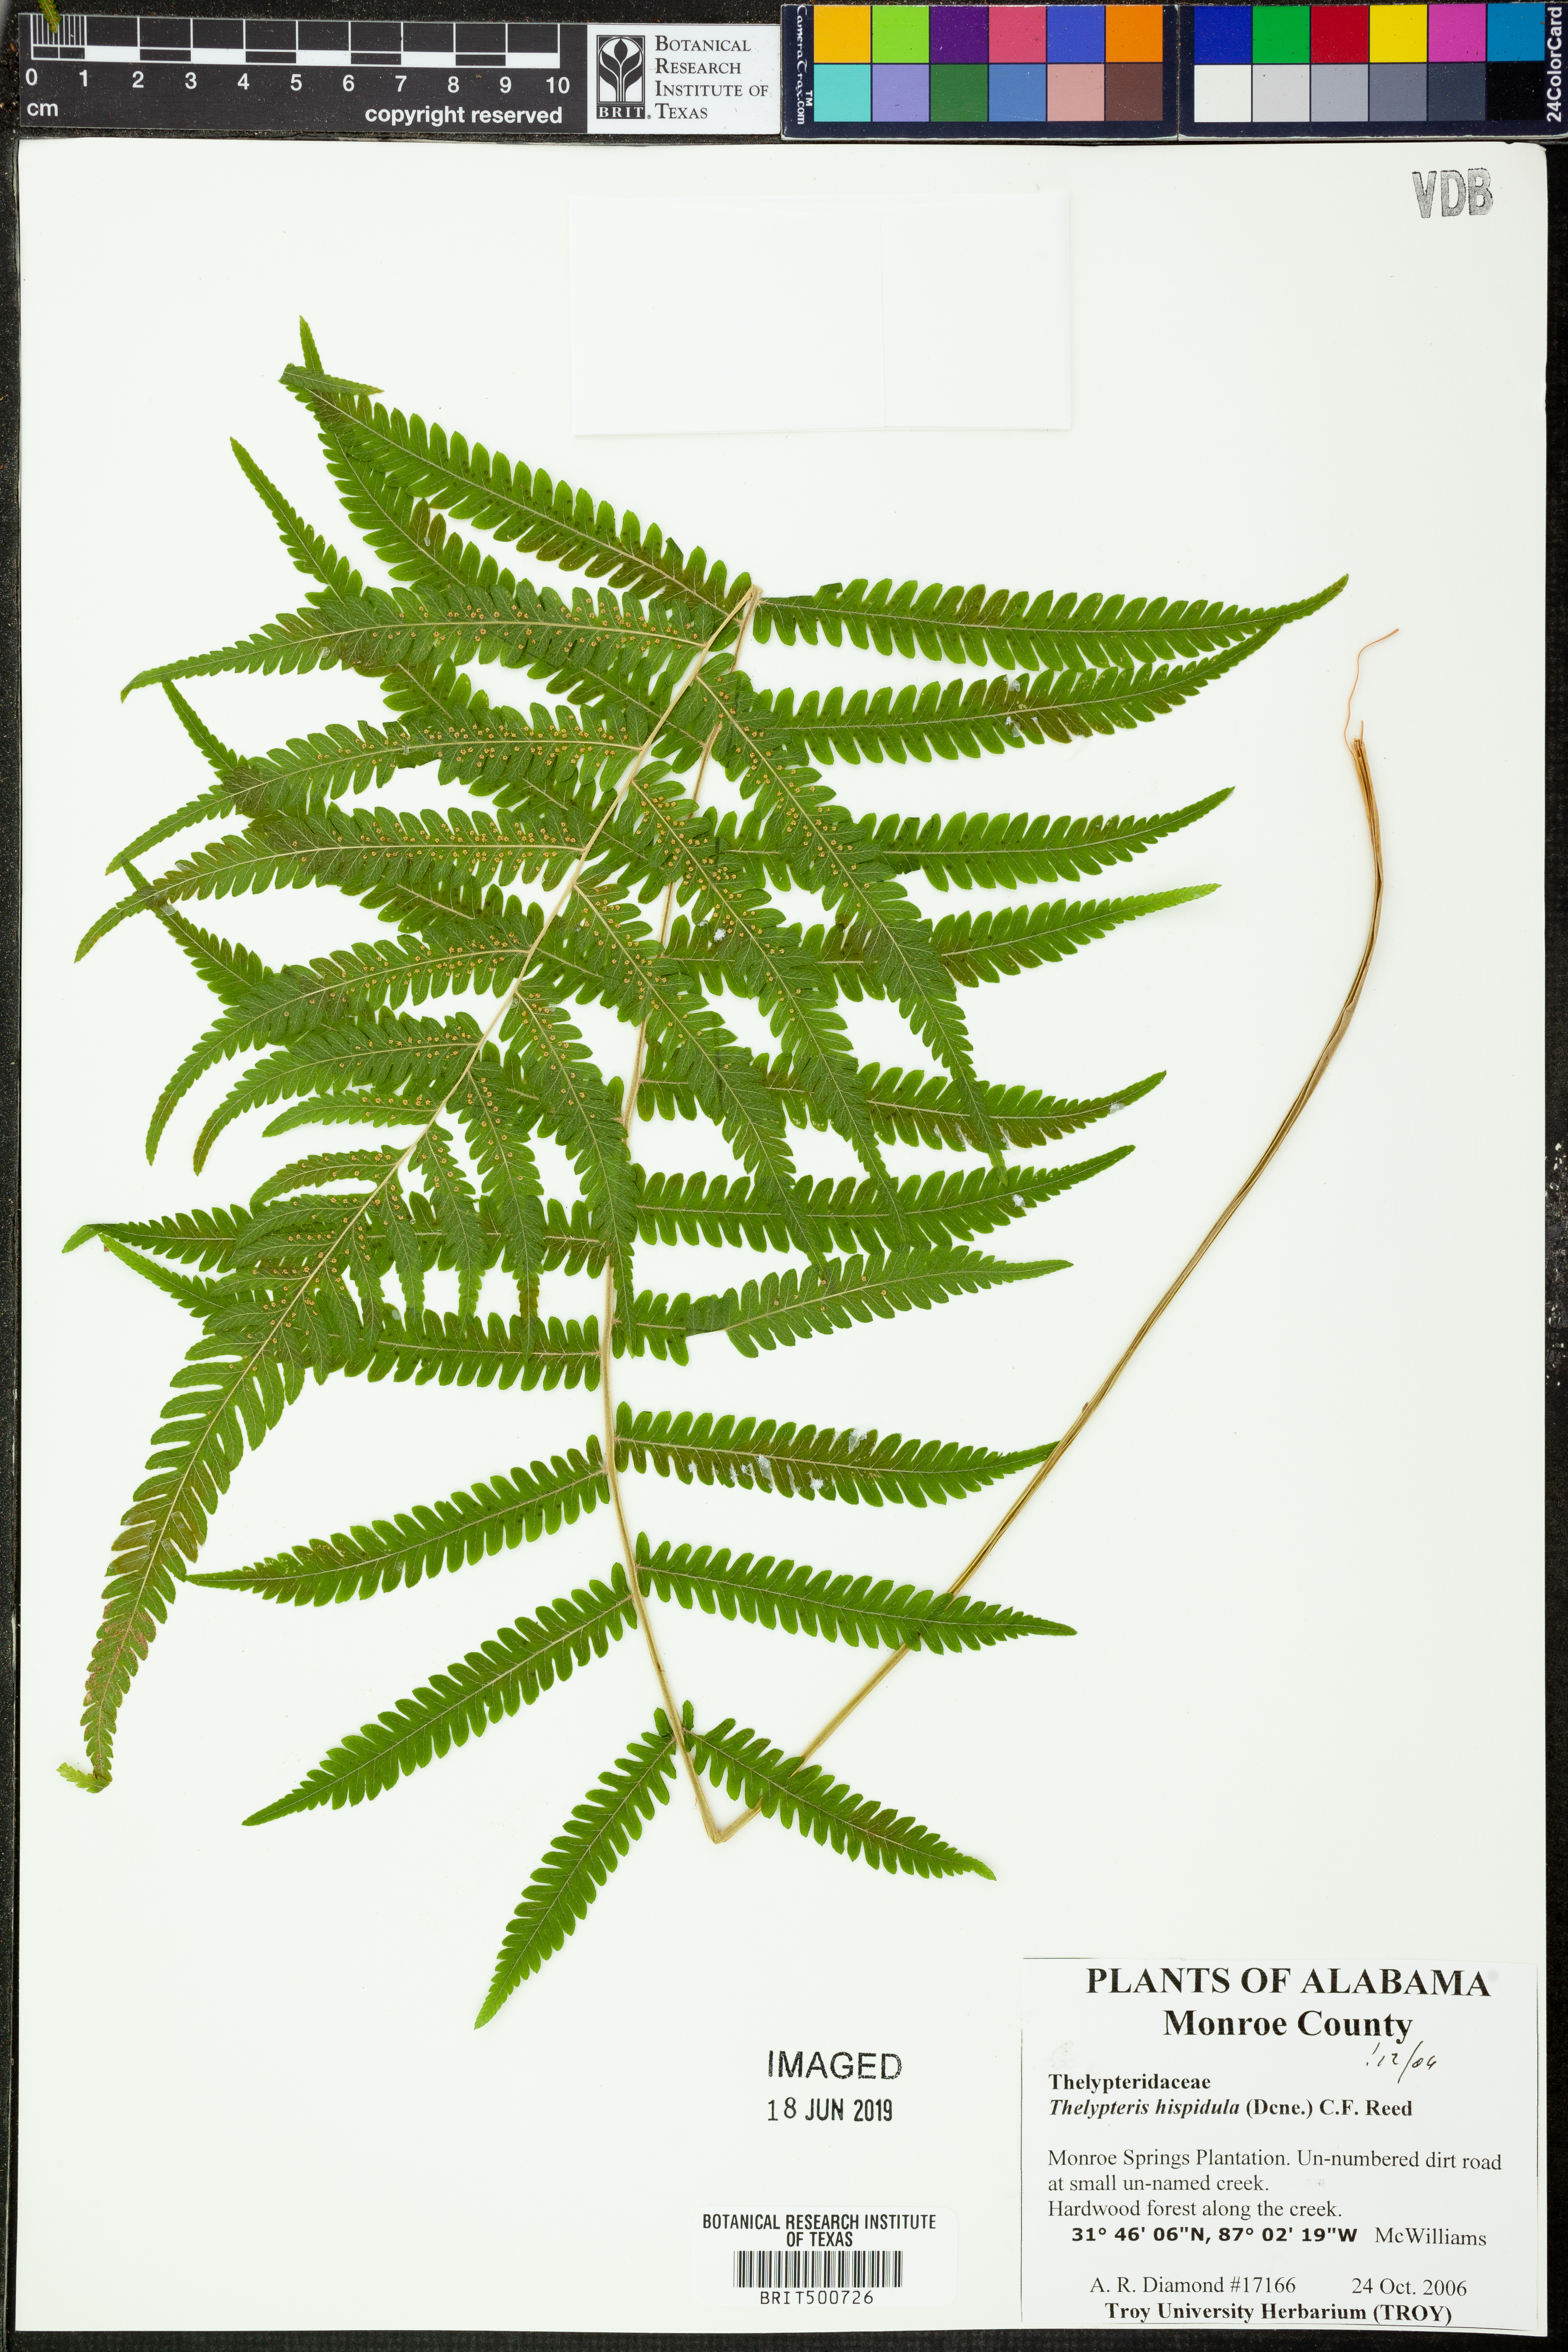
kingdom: Plantae
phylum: Tracheophyta
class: Polypodiopsida
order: Polypodiales
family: Thelypteridaceae
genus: Christella
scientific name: Christella hispidula
